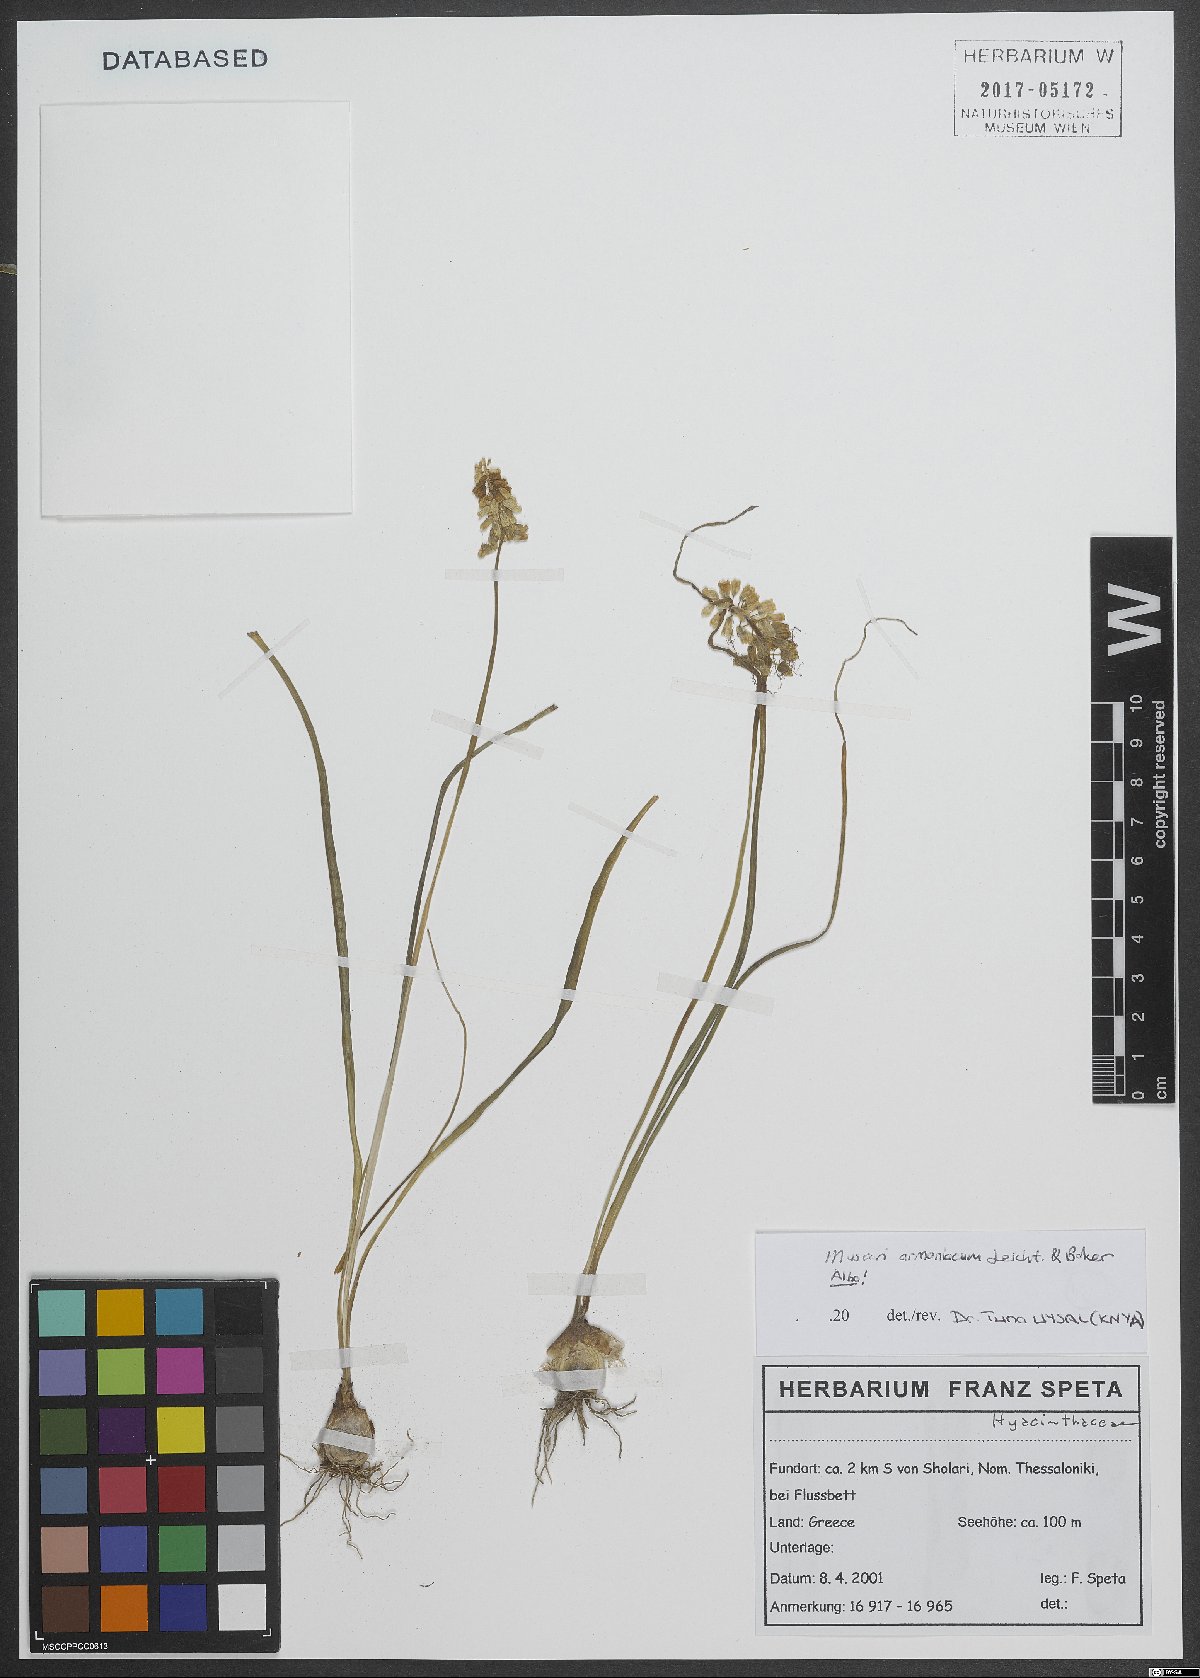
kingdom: Plantae
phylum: Tracheophyta
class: Liliopsida
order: Asparagales
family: Asparagaceae
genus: Muscari
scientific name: Muscari armeniacum
